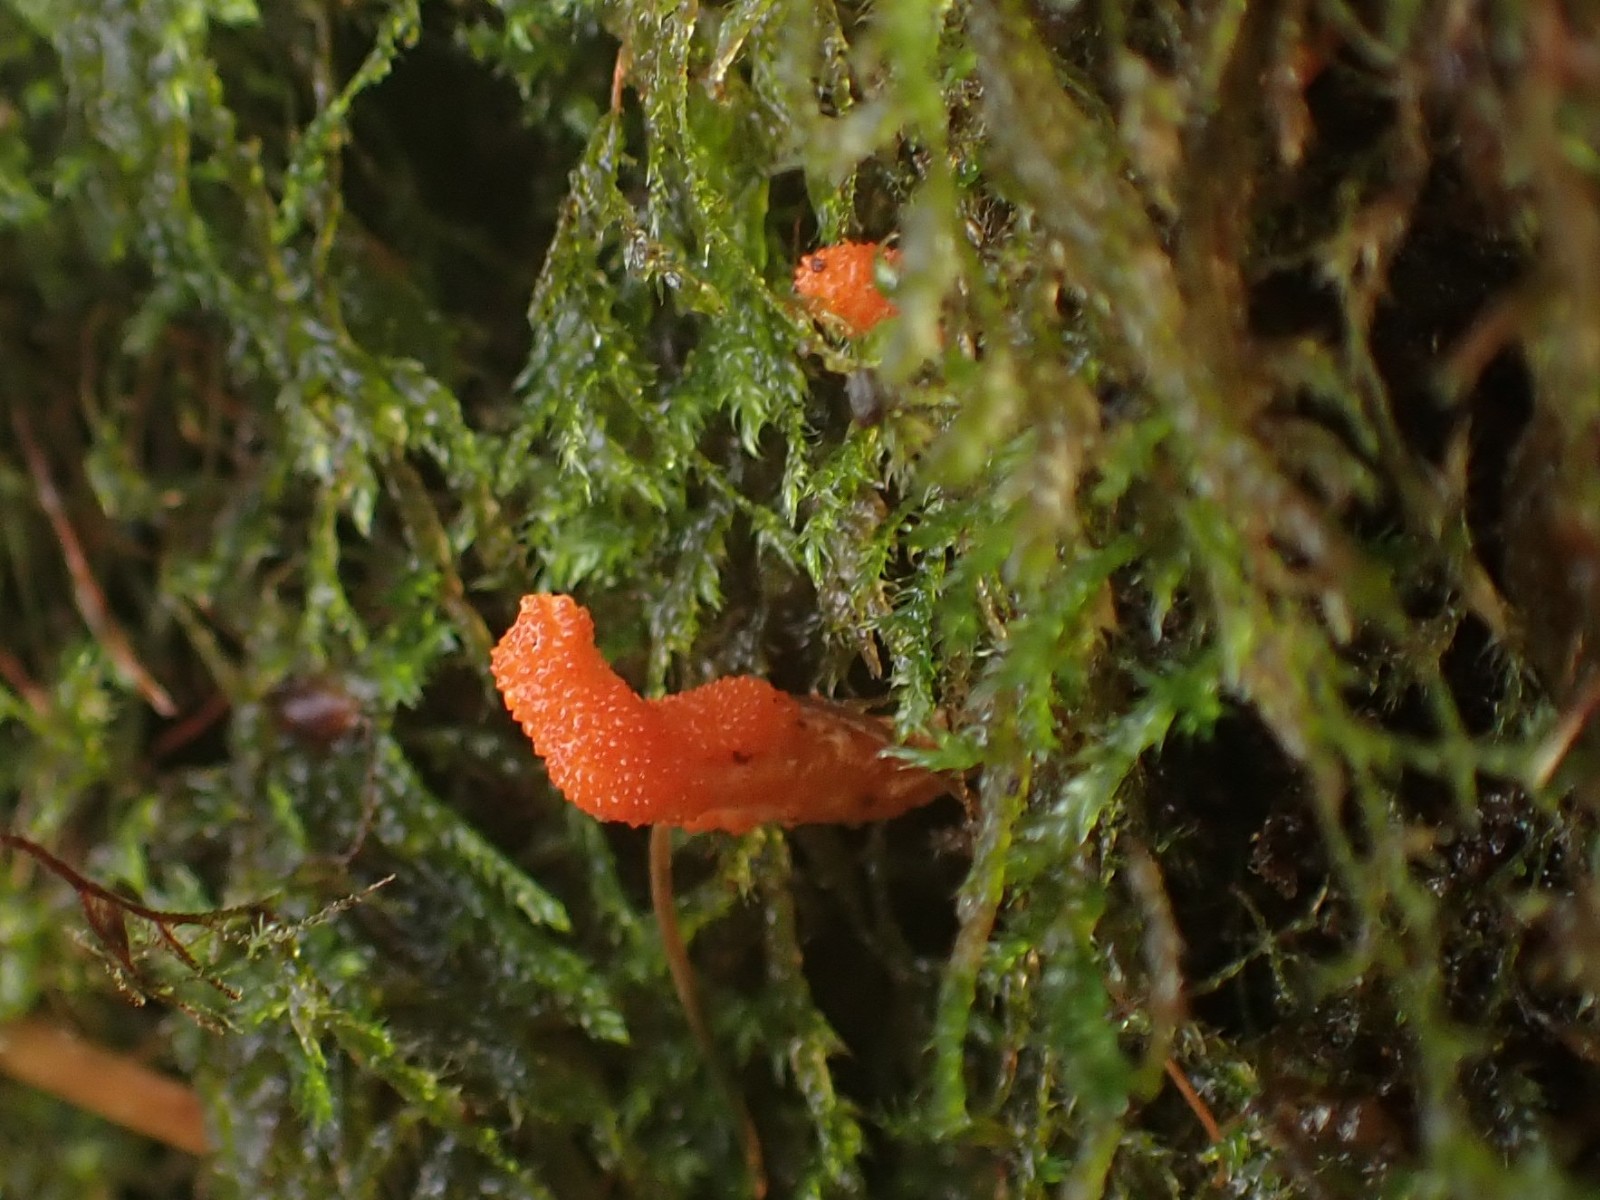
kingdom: Fungi
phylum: Ascomycota
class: Sordariomycetes
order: Hypocreales
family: Cordycipitaceae
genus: Cordyceps
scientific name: Cordyceps militaris
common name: puppe-snyltekølle
